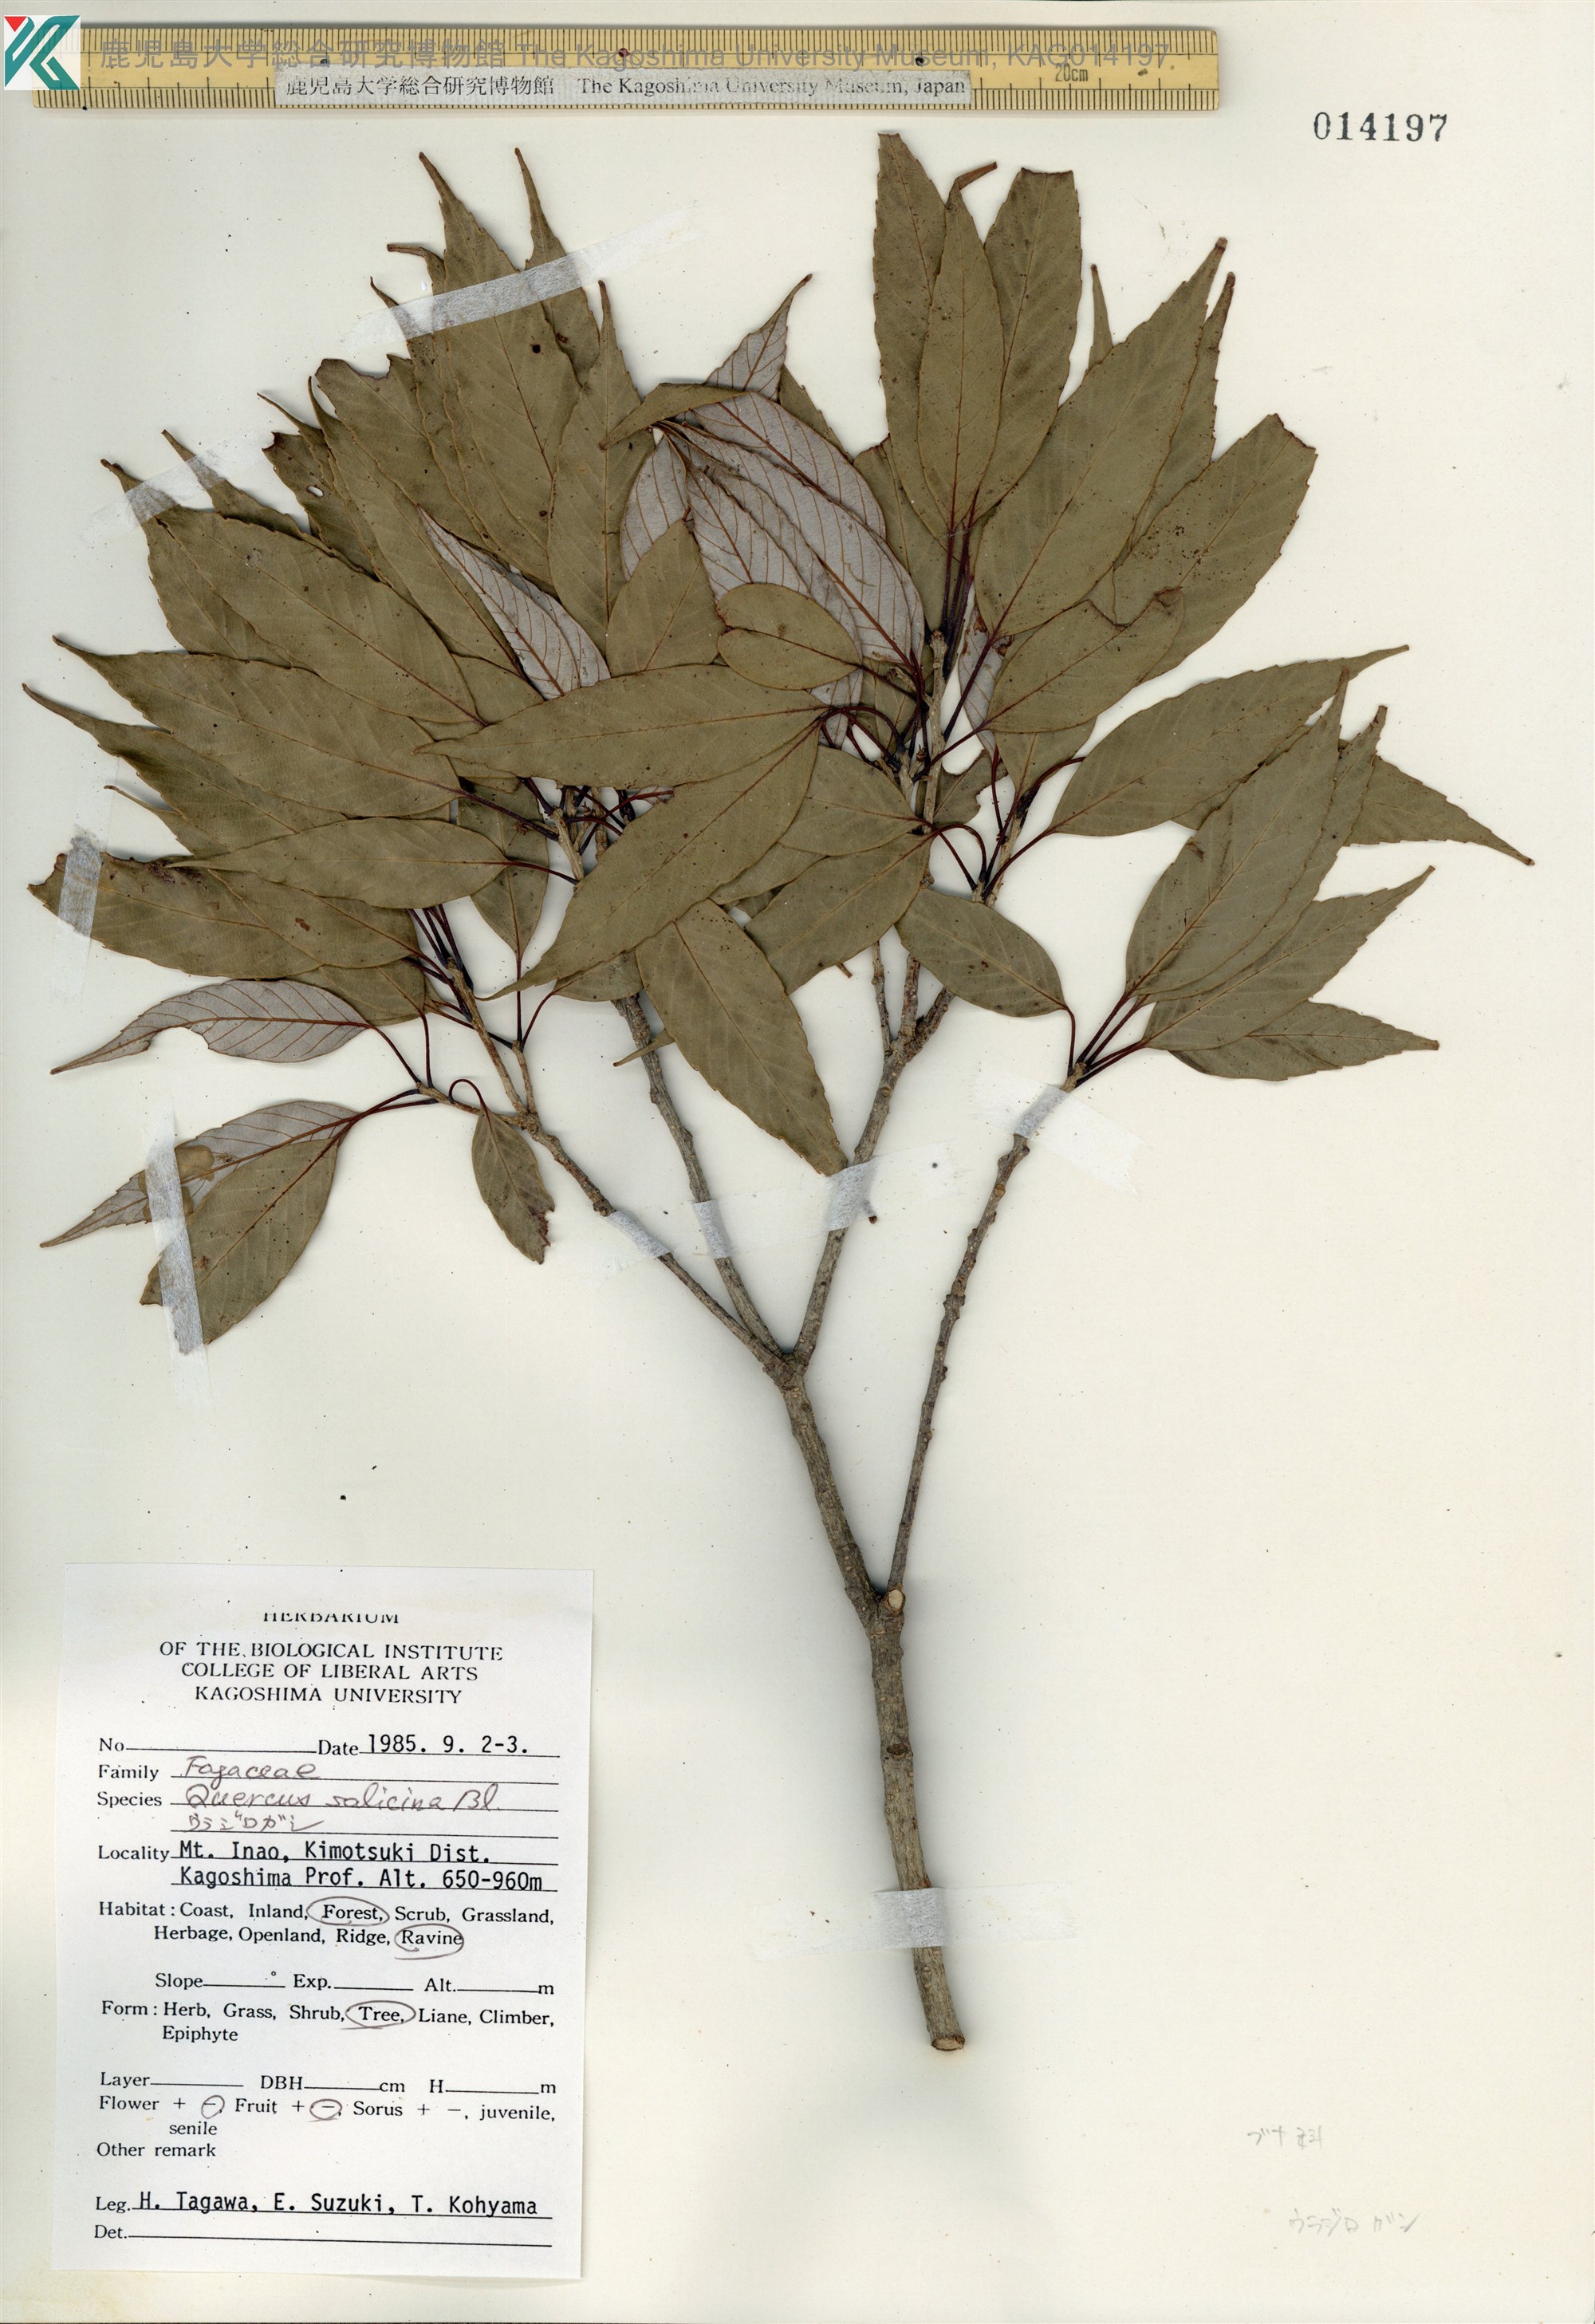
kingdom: Plantae
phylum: Tracheophyta
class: Magnoliopsida
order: Fagales
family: Fagaceae
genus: Quercus
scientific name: Quercus salicina
